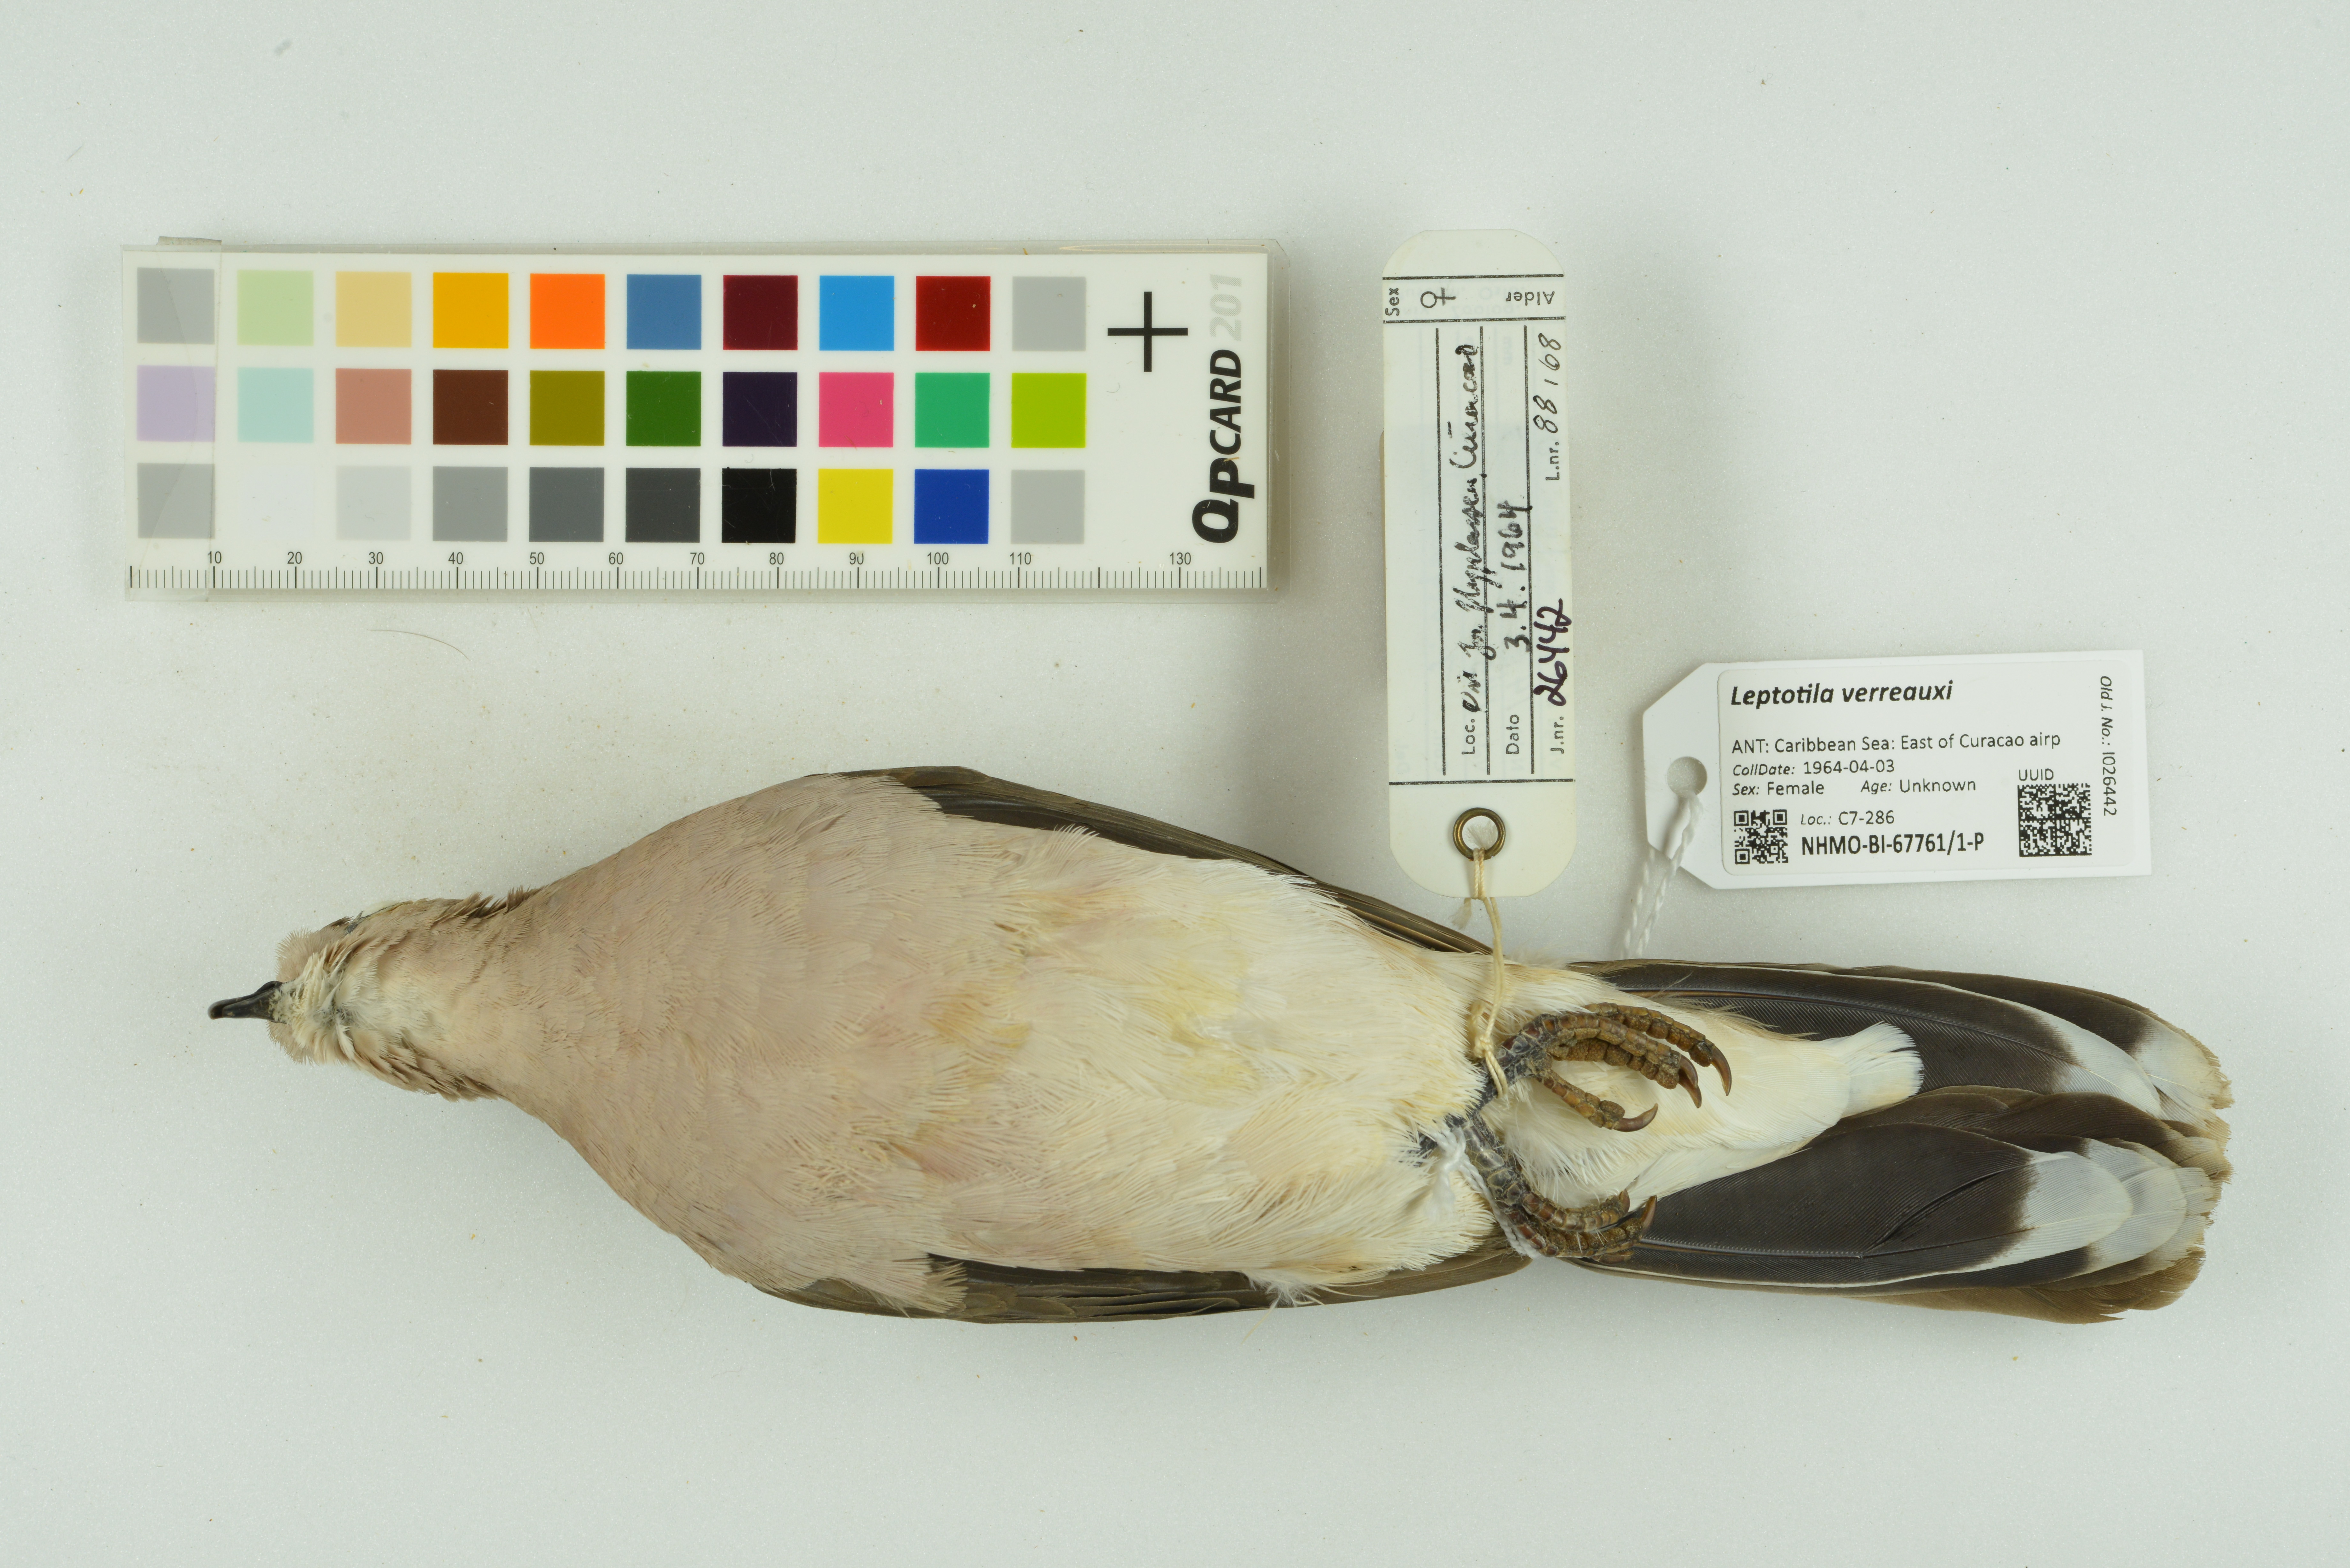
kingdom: Animalia
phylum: Chordata
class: Aves
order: Columbiformes
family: Columbidae
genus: Leptotila
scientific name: Leptotila verreauxi
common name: White-tipped dove
